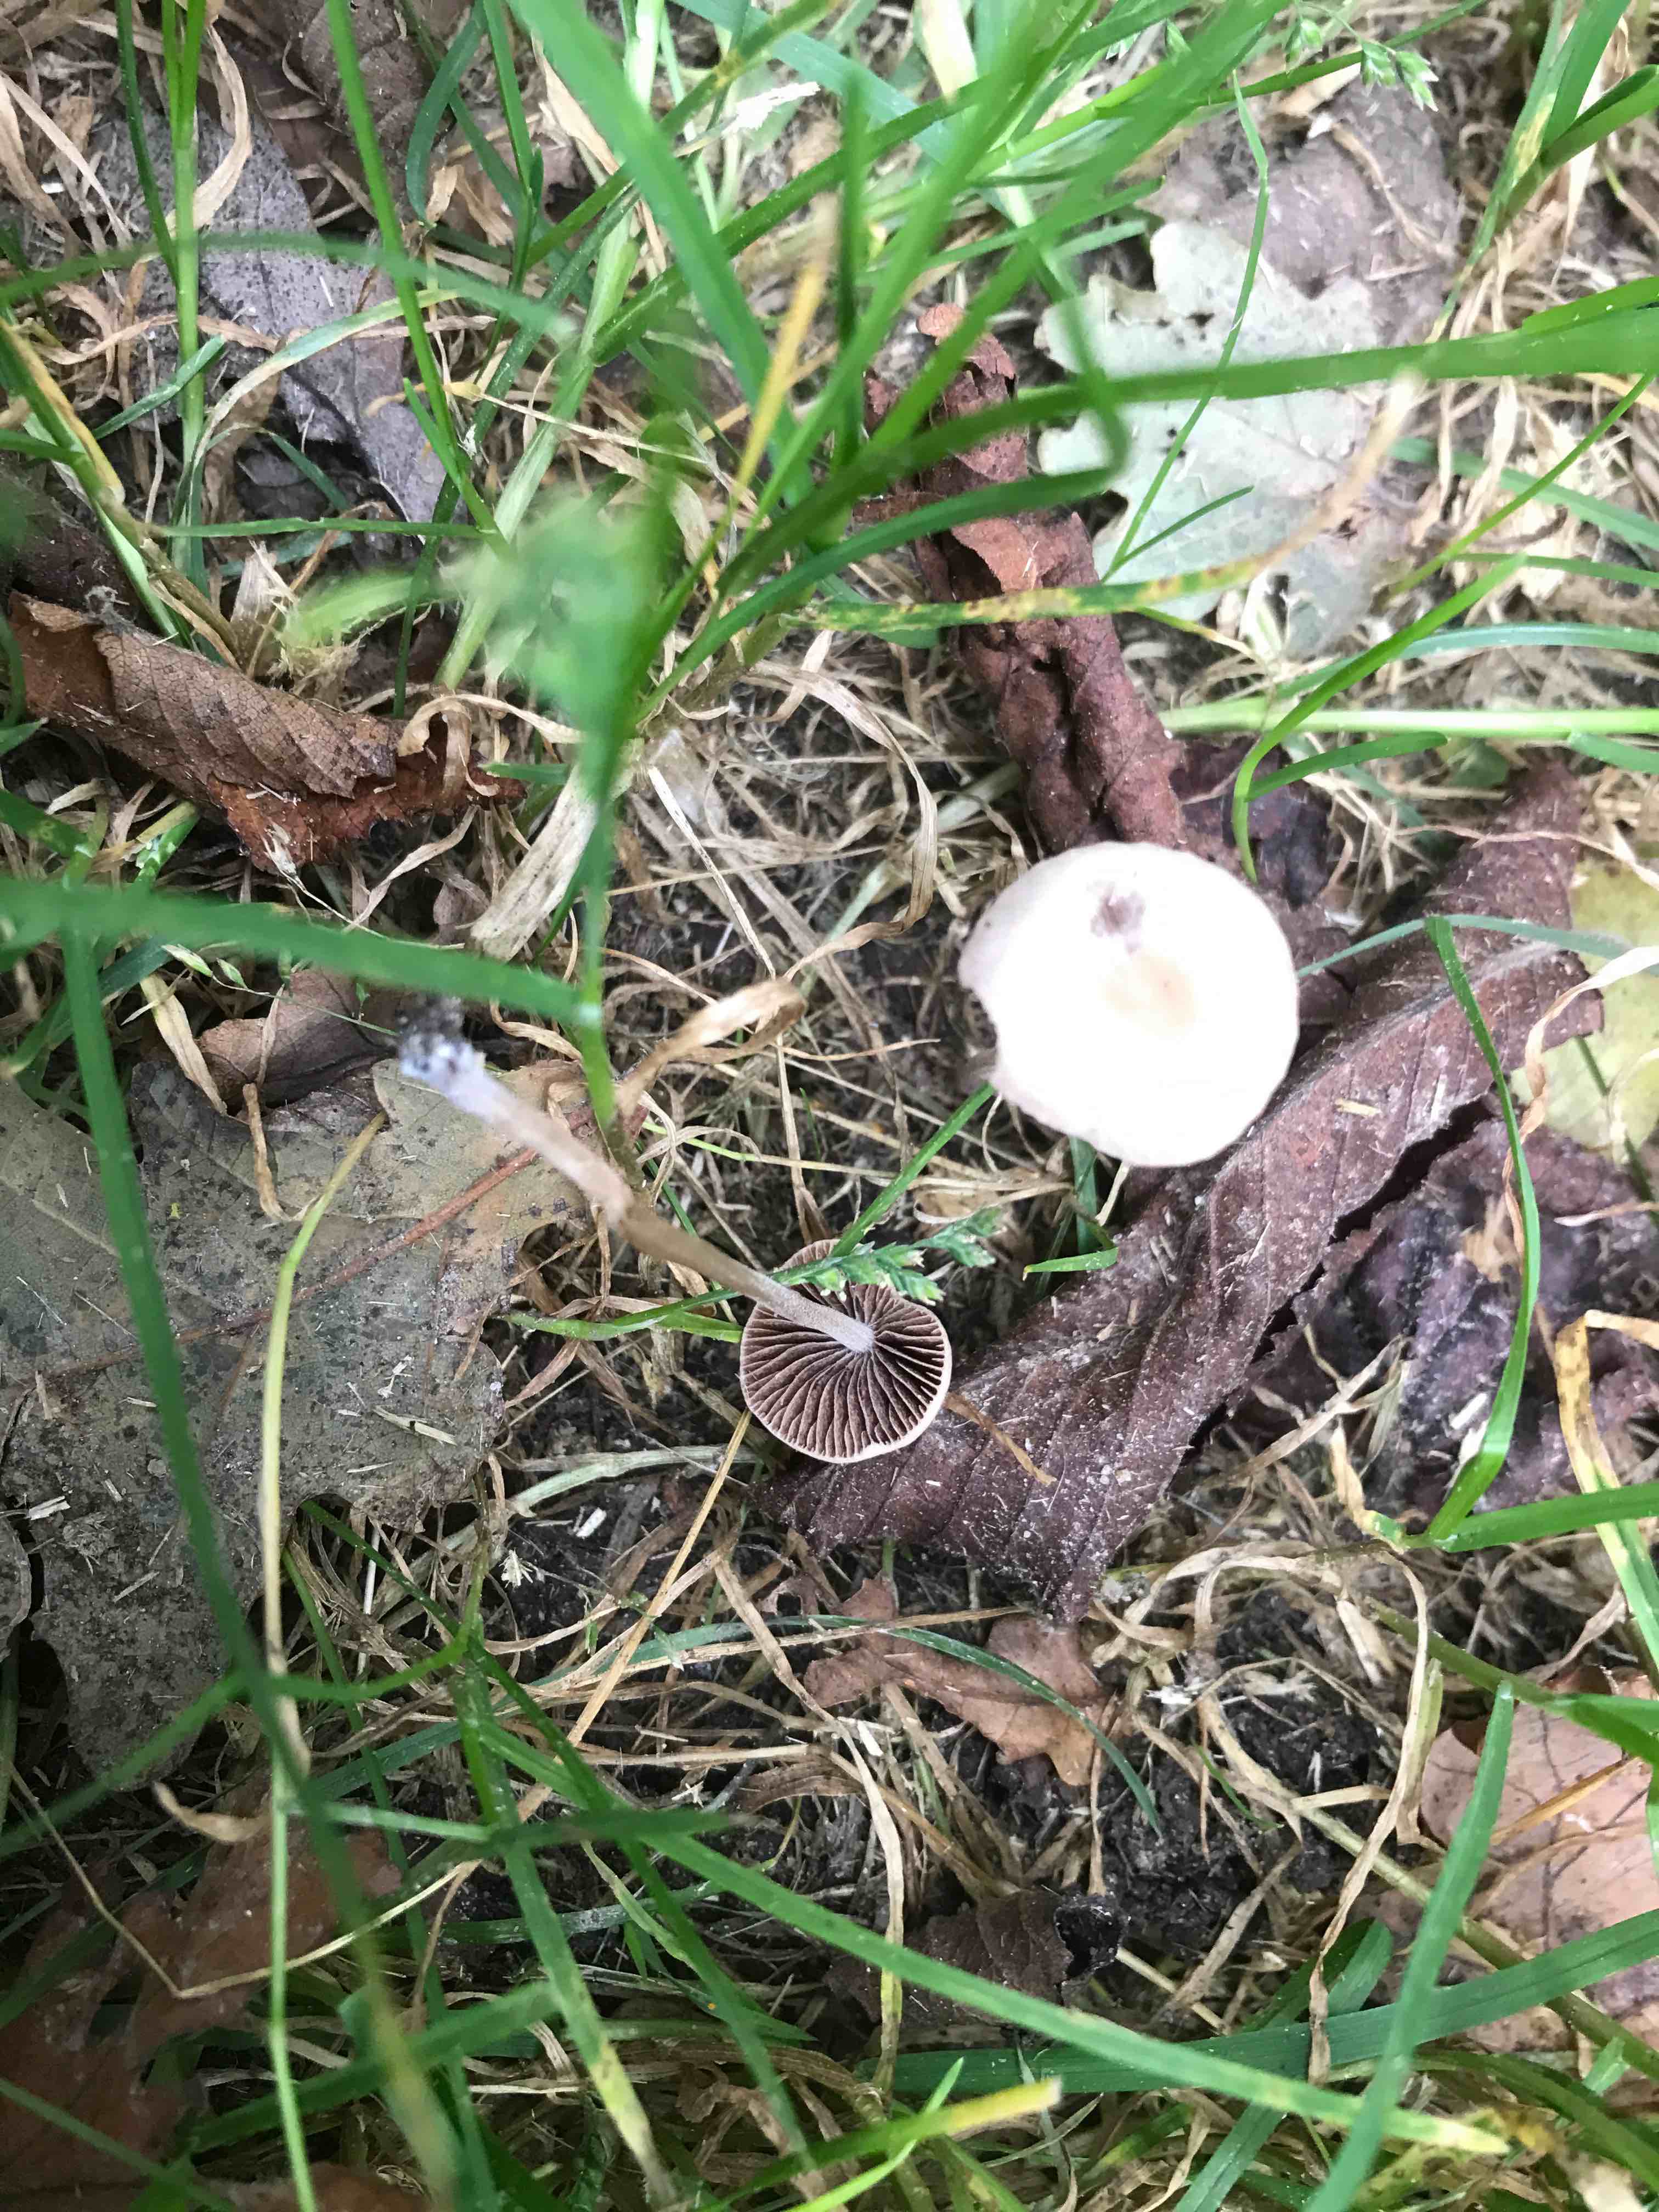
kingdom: Fungi
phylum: Basidiomycota
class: Agaricomycetes
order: Agaricales
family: Psathyrellaceae
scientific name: Psathyrellaceae
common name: mørkhatfamilien
